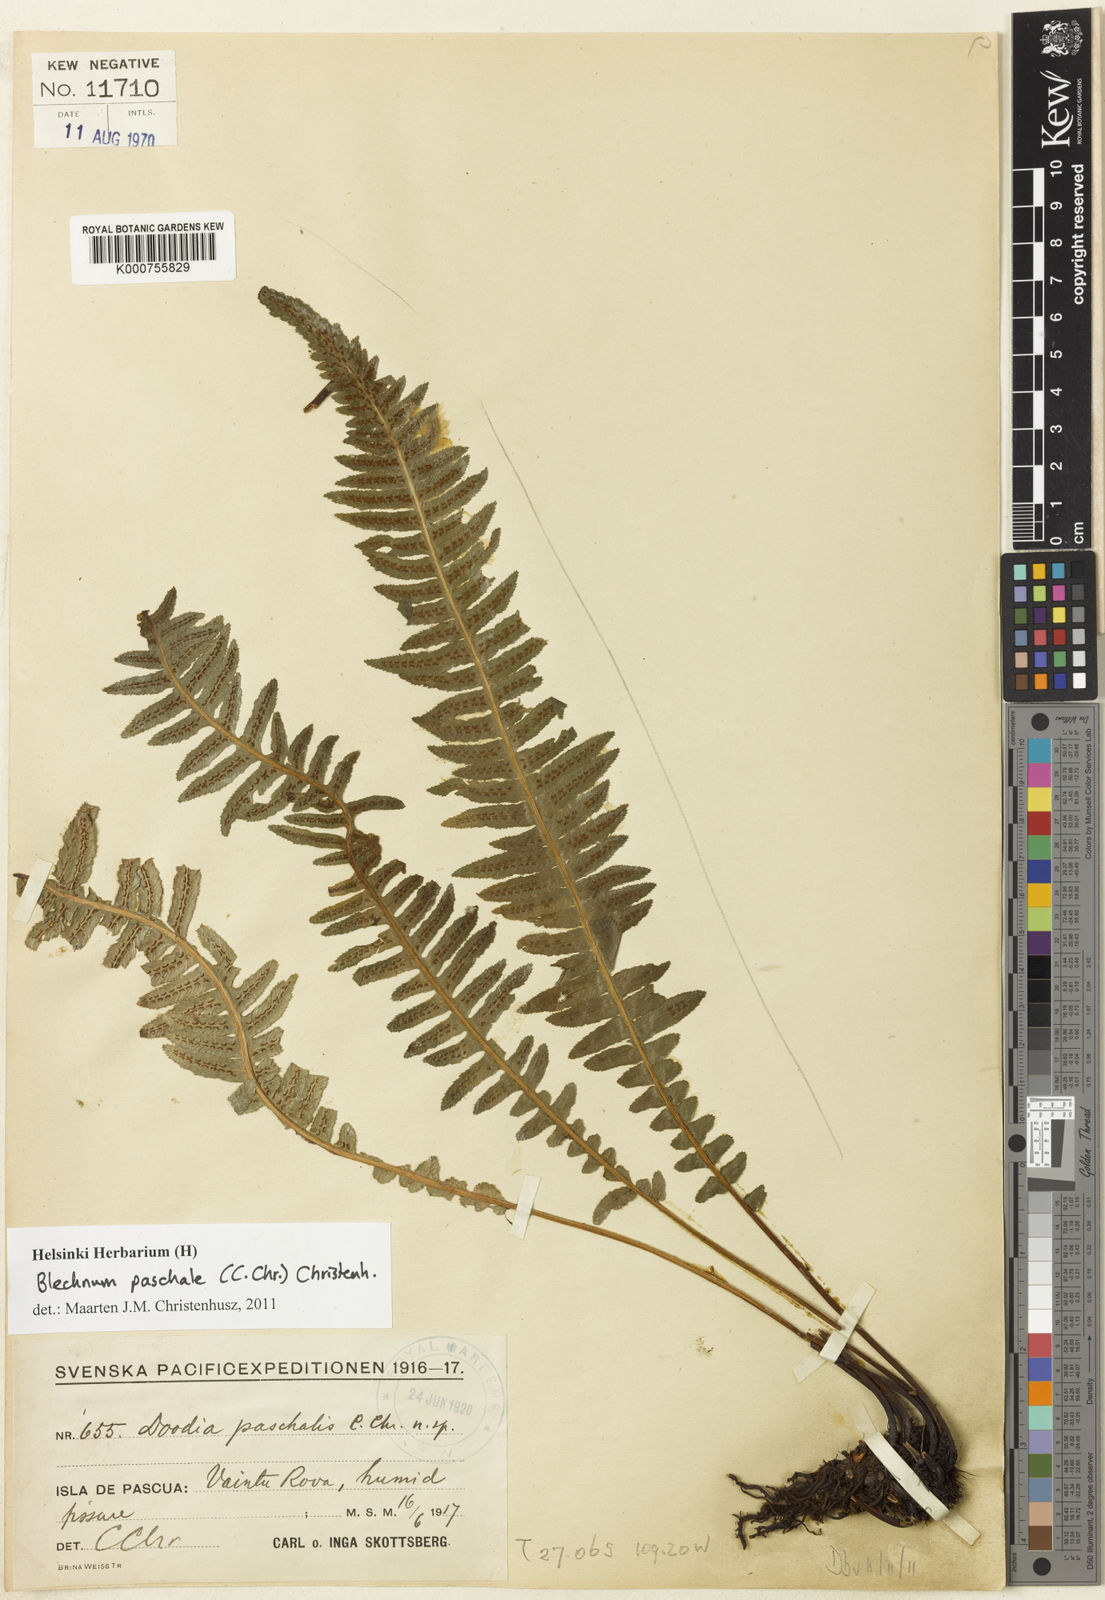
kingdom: Plantae
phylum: Tracheophyta
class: Polypodiopsida
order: Polypodiales
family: Blechnaceae
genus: Doodia
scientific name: Doodia paschalis
